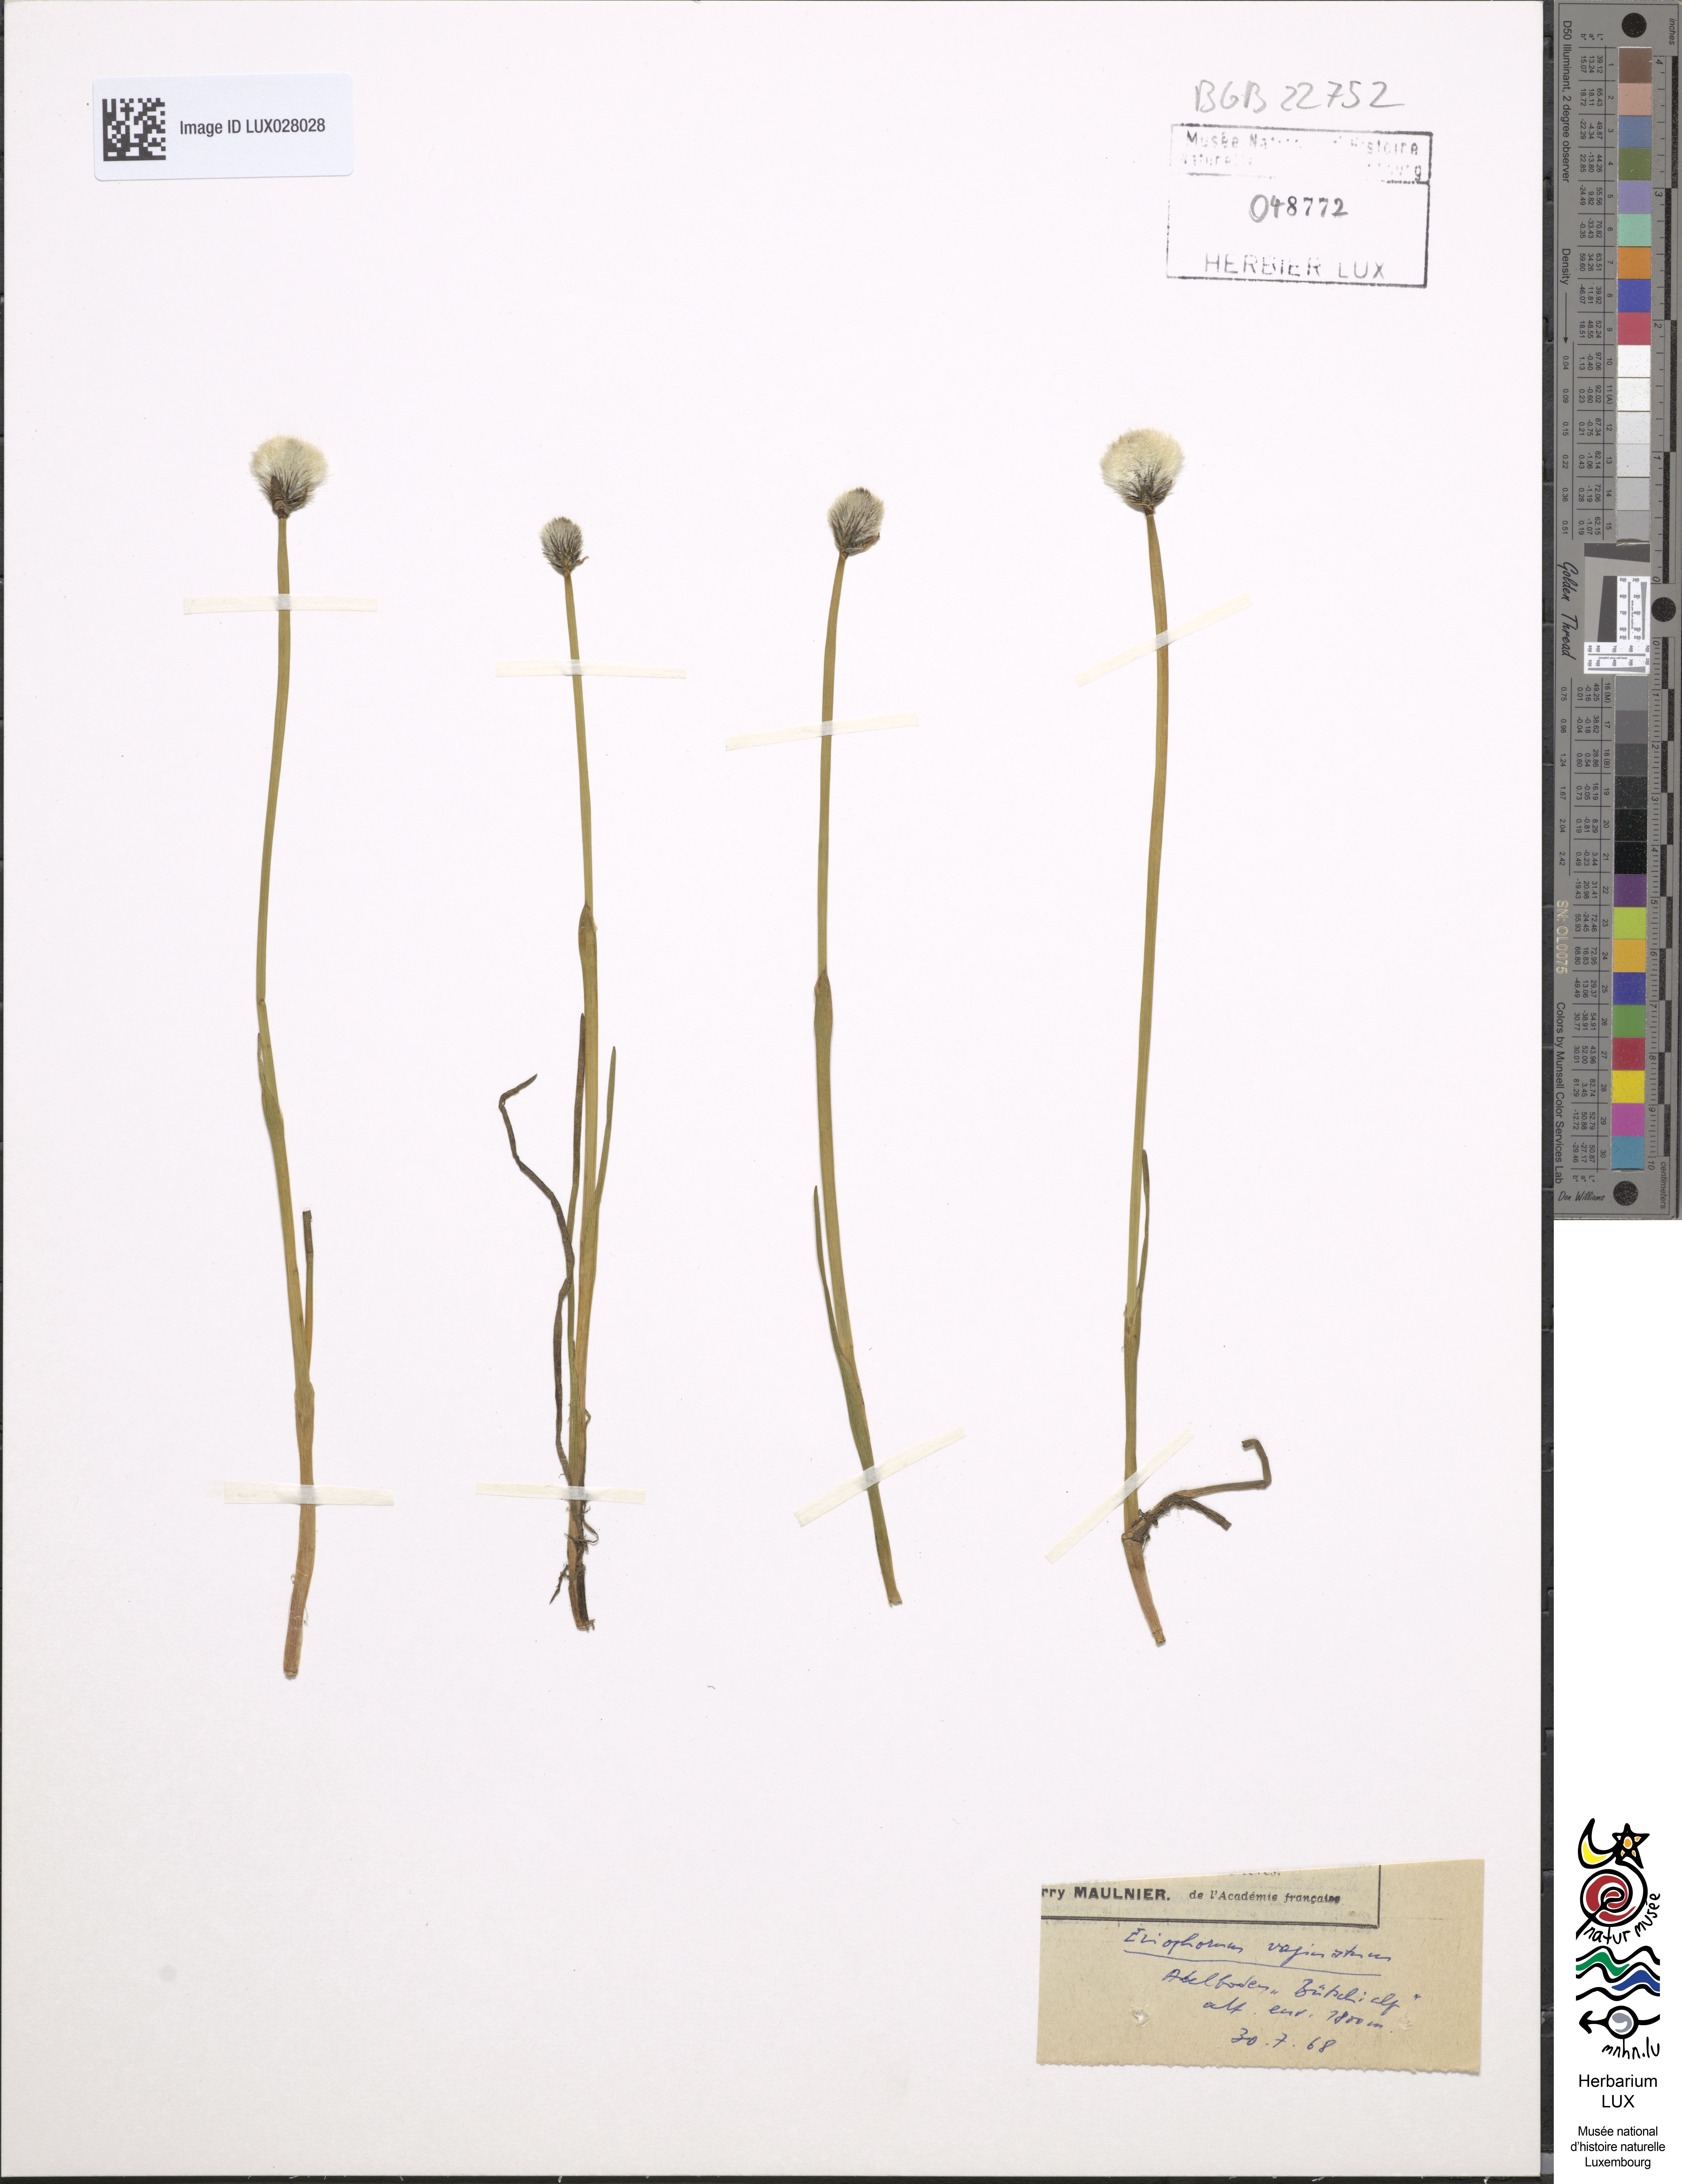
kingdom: Plantae
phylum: Tracheophyta
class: Liliopsida
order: Poales
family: Cyperaceae
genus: Eriophorum
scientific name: Eriophorum vaginatum
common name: Hare's-tail cottongrass
